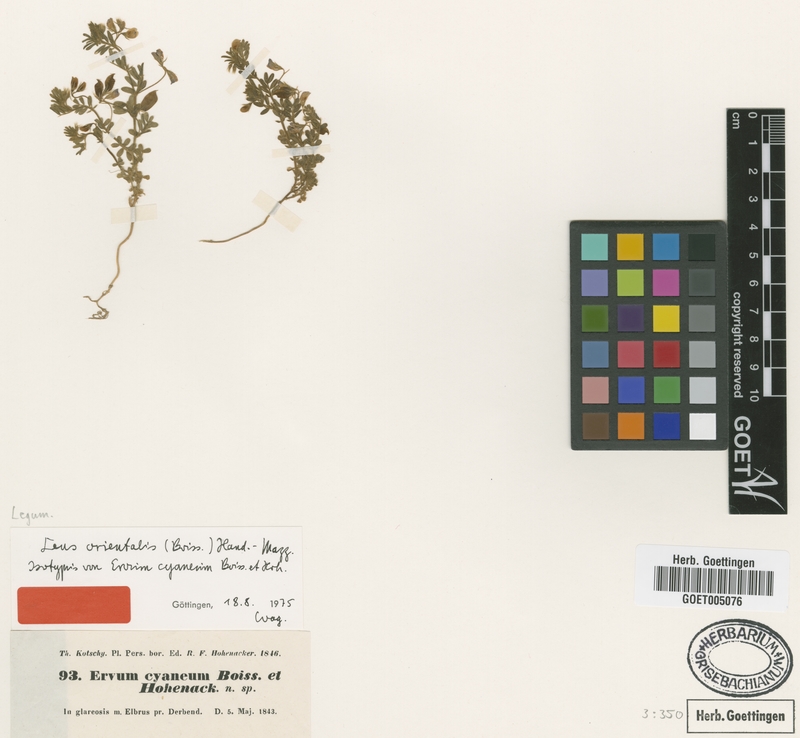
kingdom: Plantae
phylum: Tracheophyta
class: Magnoliopsida
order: Fabales
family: Fabaceae
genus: Vicia
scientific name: Vicia orientalis
